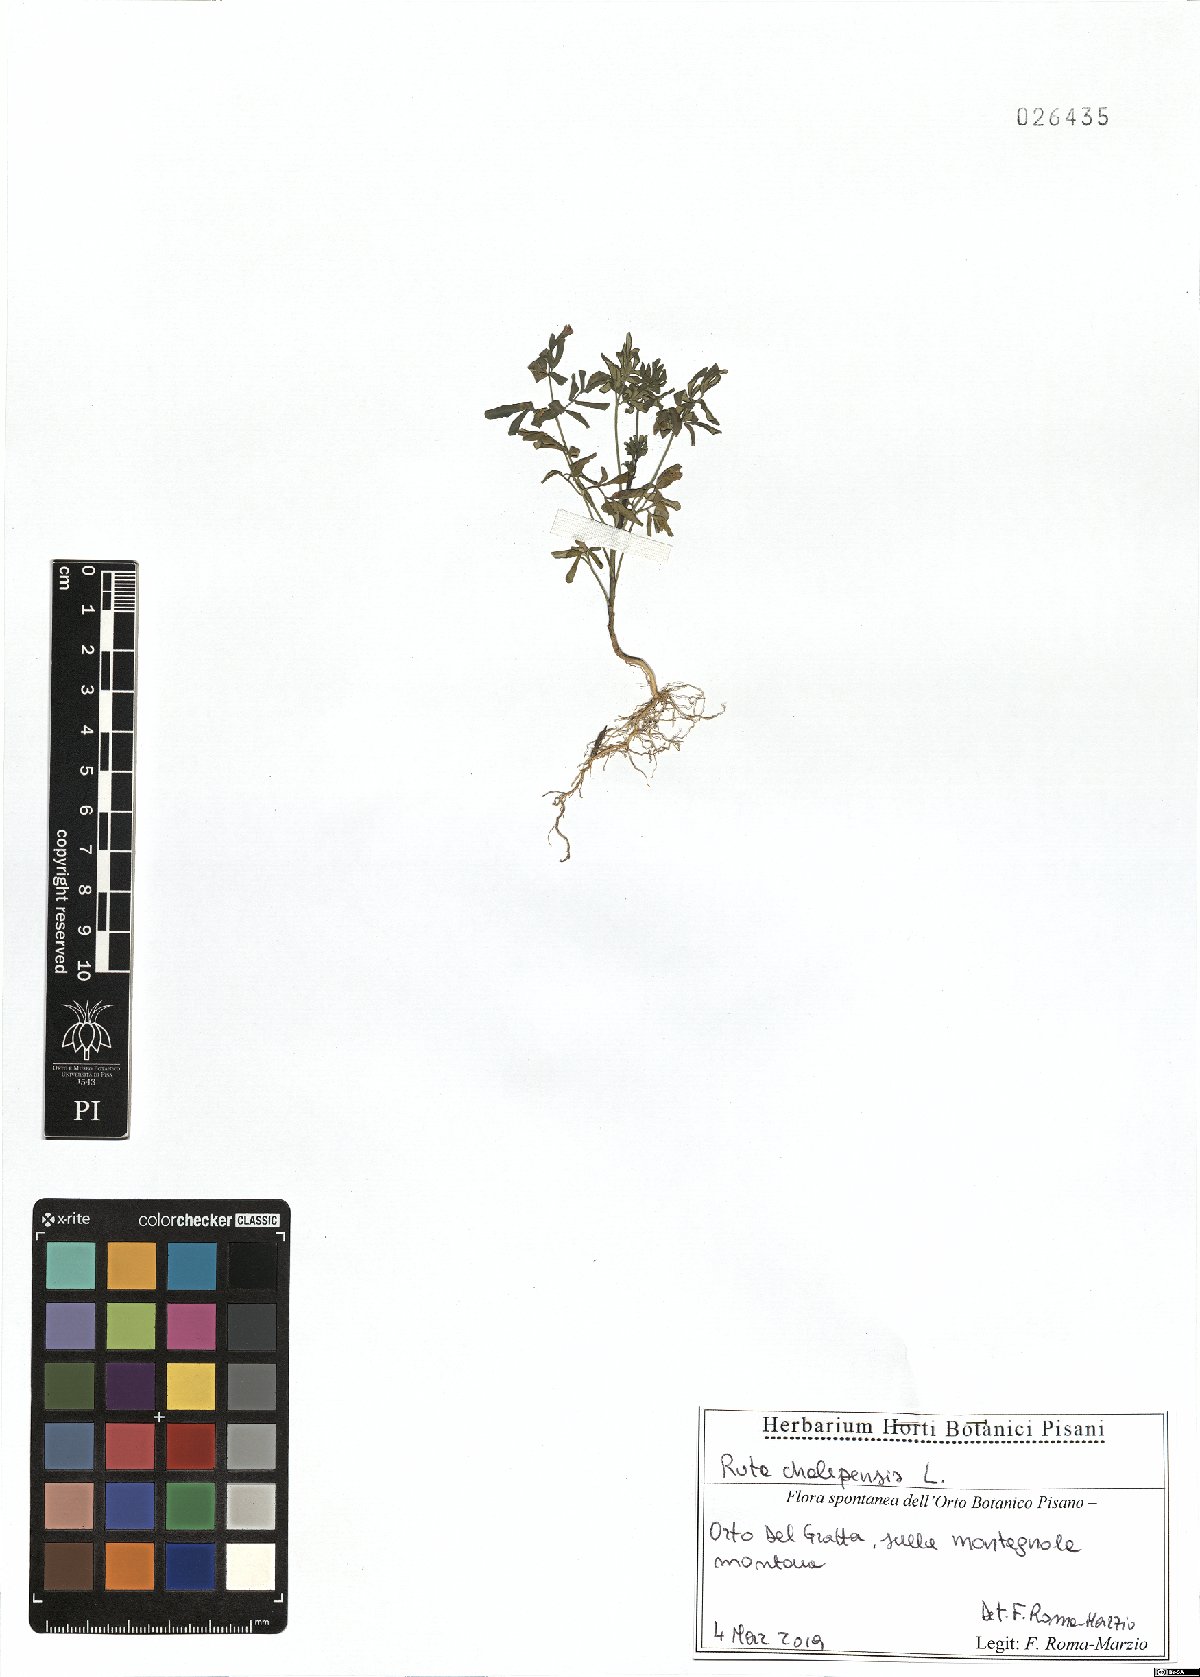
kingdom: Plantae
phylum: Tracheophyta
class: Magnoliopsida
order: Sapindales
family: Rutaceae
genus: Ruta
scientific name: Ruta chalepensis
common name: Fringed rue
